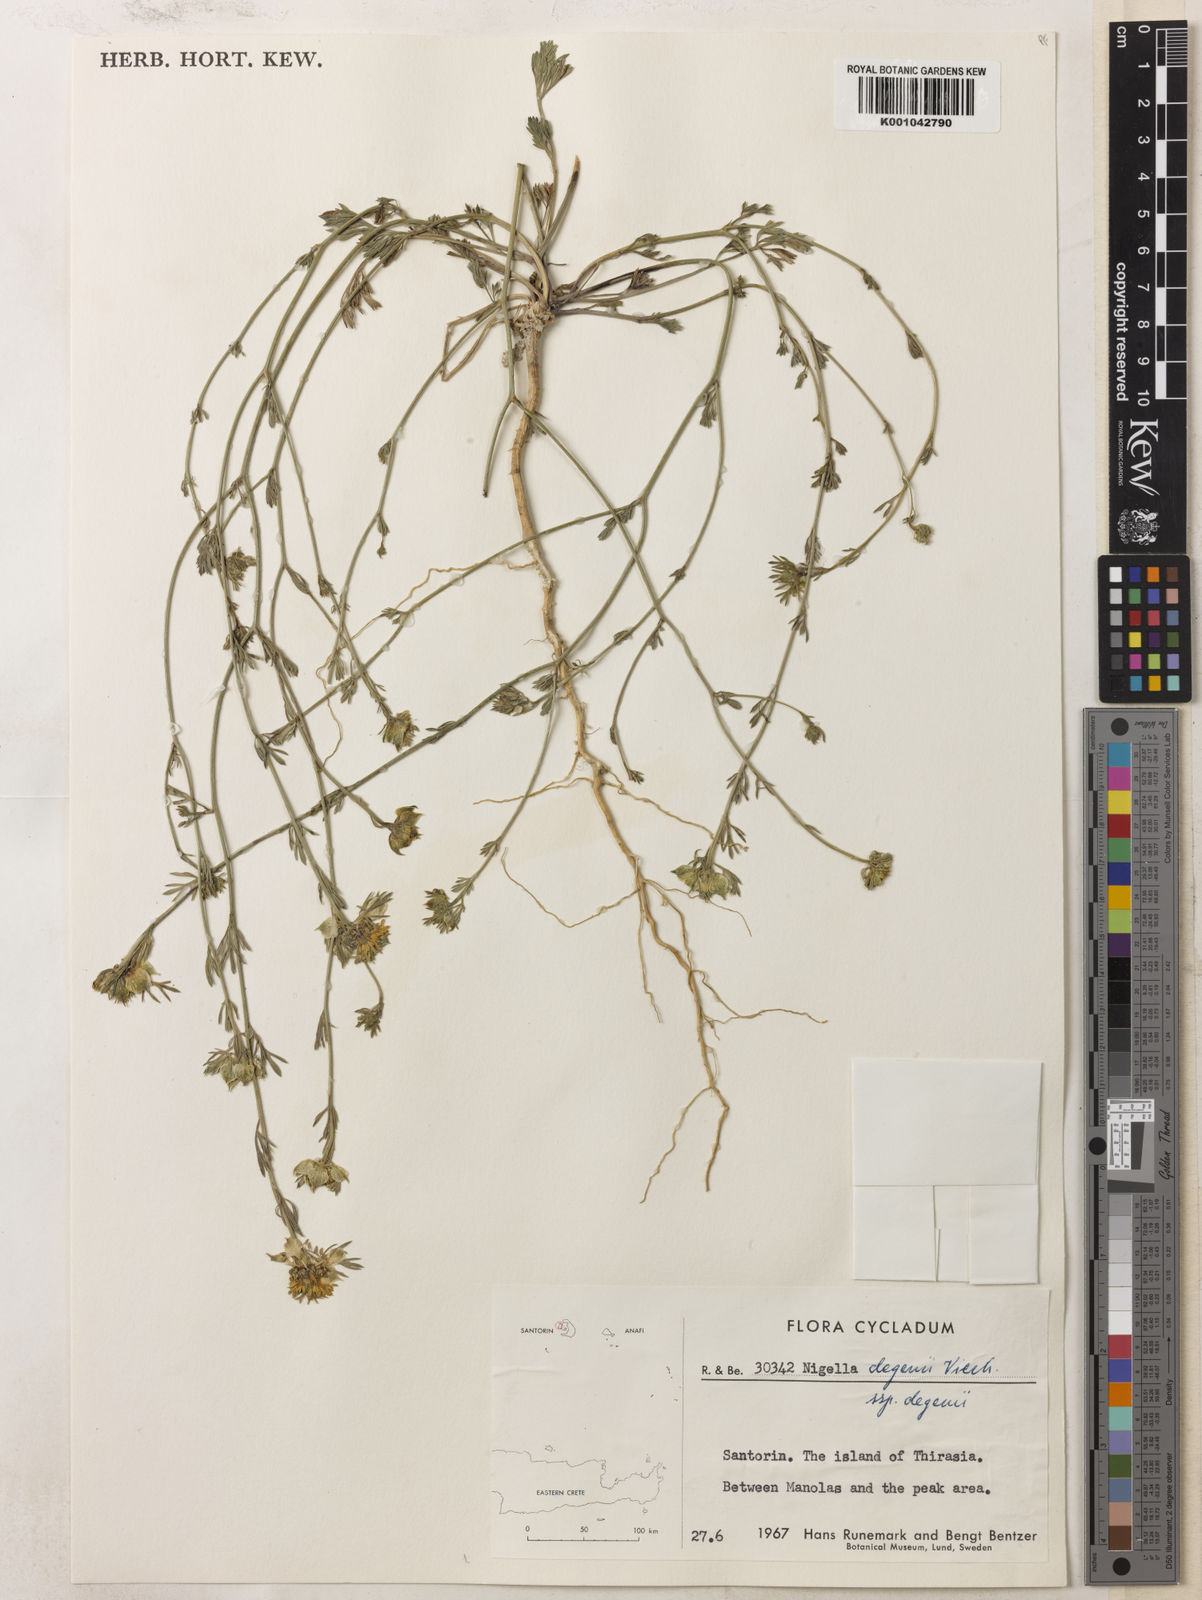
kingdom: Plantae
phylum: Tracheophyta
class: Magnoliopsida
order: Ranunculales
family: Ranunculaceae
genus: Nigella
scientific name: Nigella degenii
